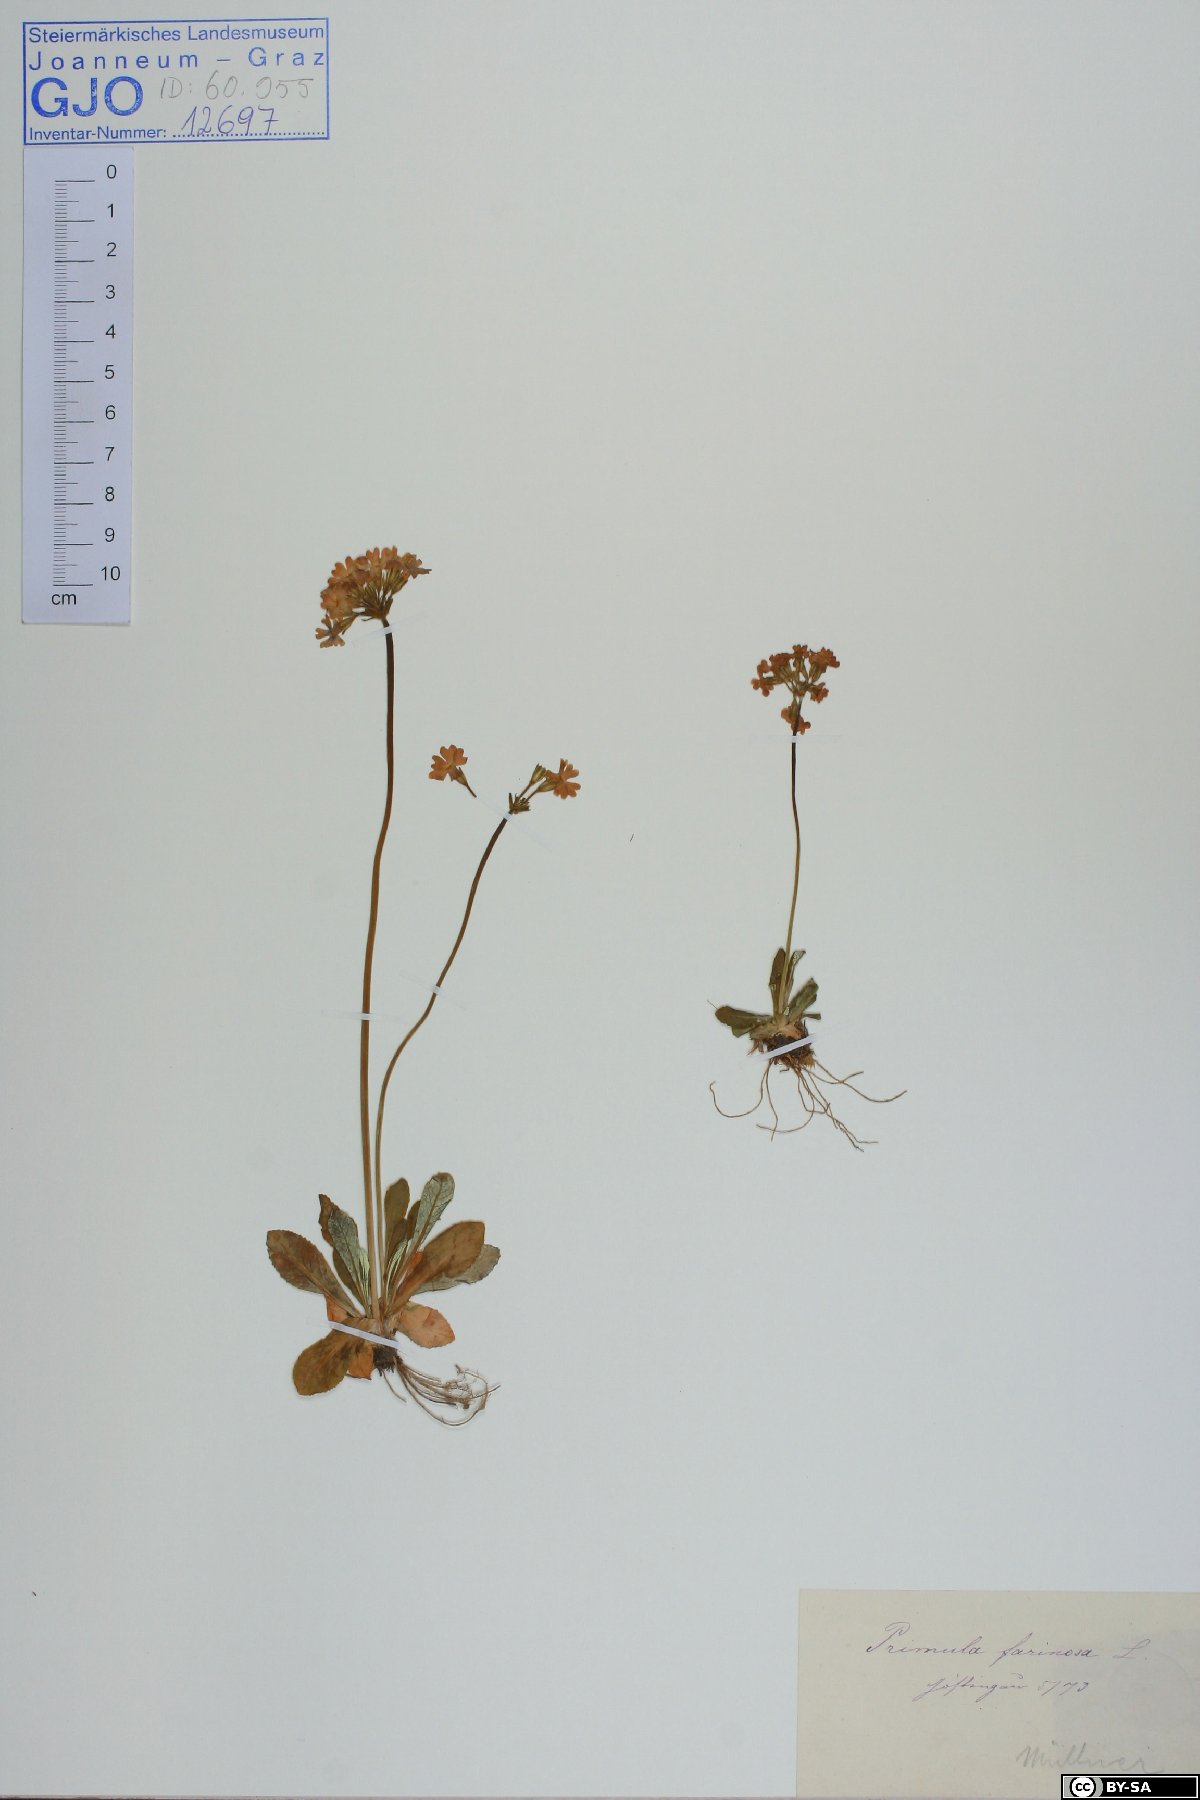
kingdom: Plantae
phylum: Tracheophyta
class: Magnoliopsida
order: Ericales
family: Primulaceae
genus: Primula
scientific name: Primula farinosa
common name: Bird's-eye primrose
